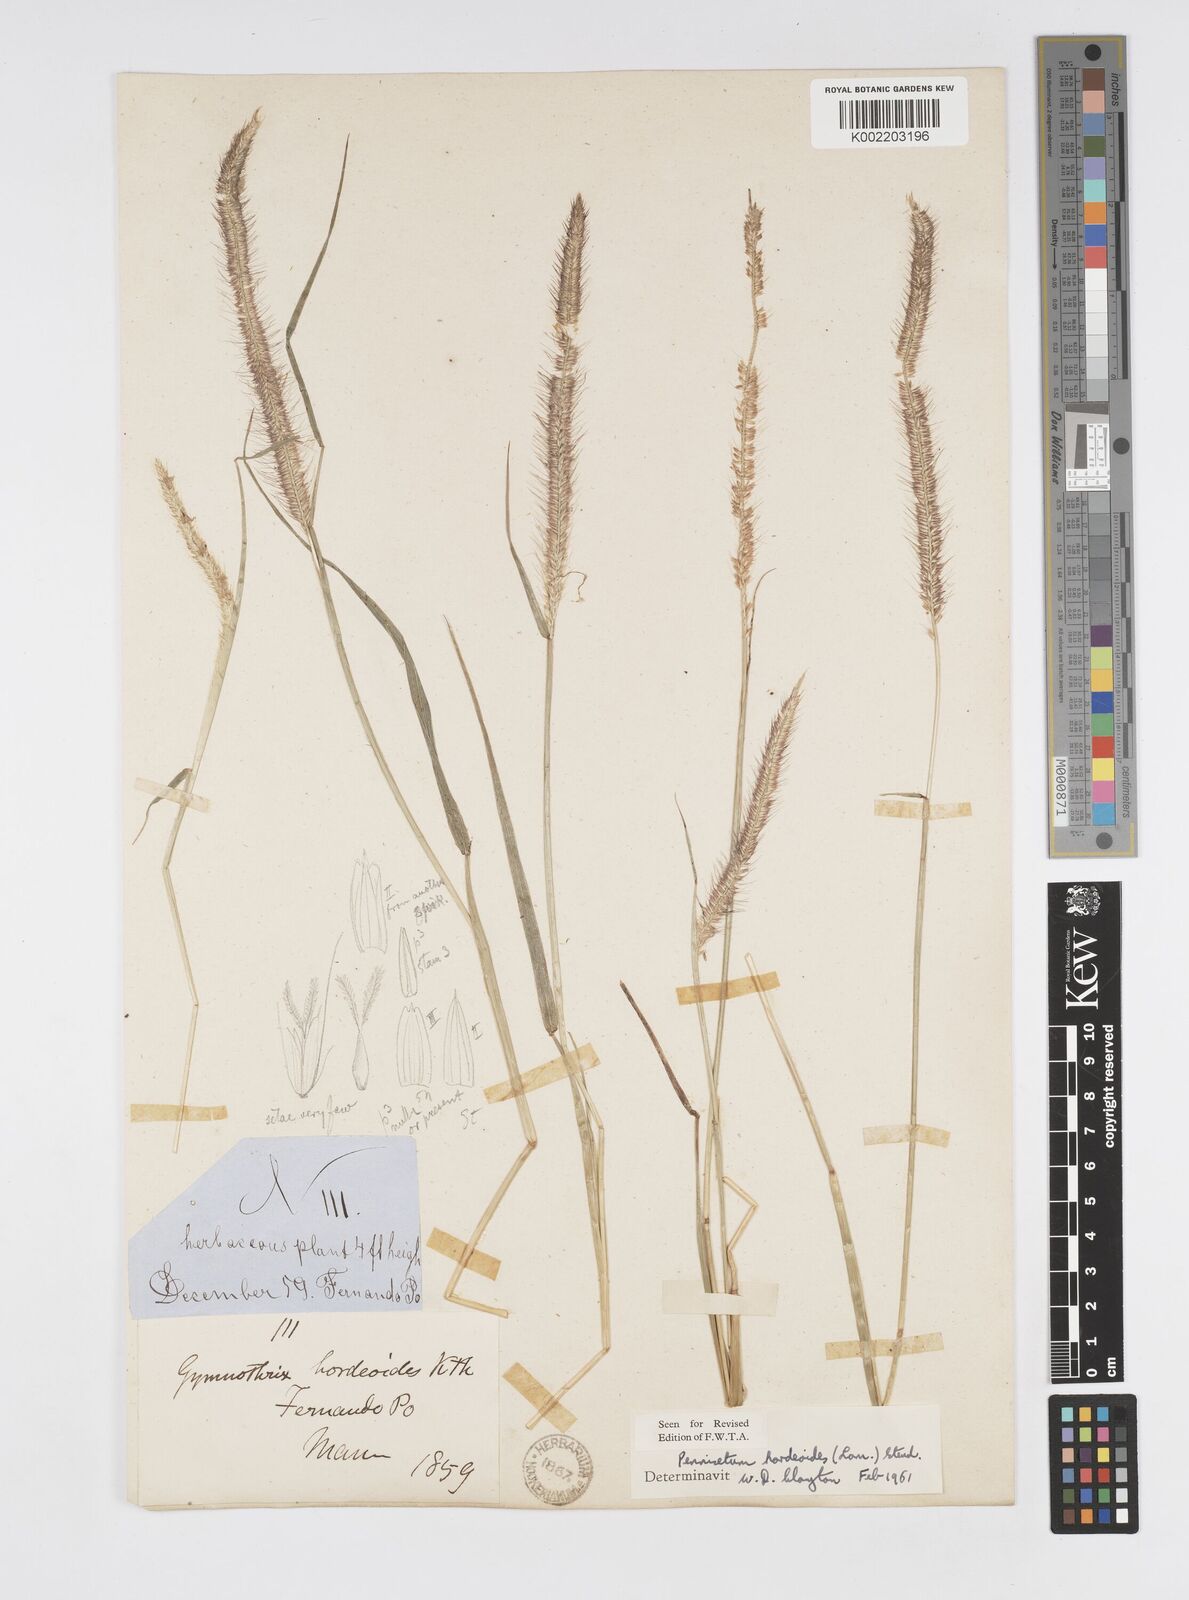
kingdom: Plantae
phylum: Tracheophyta
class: Liliopsida
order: Poales
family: Poaceae
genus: Cenchrus
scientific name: Cenchrus hordeoides
